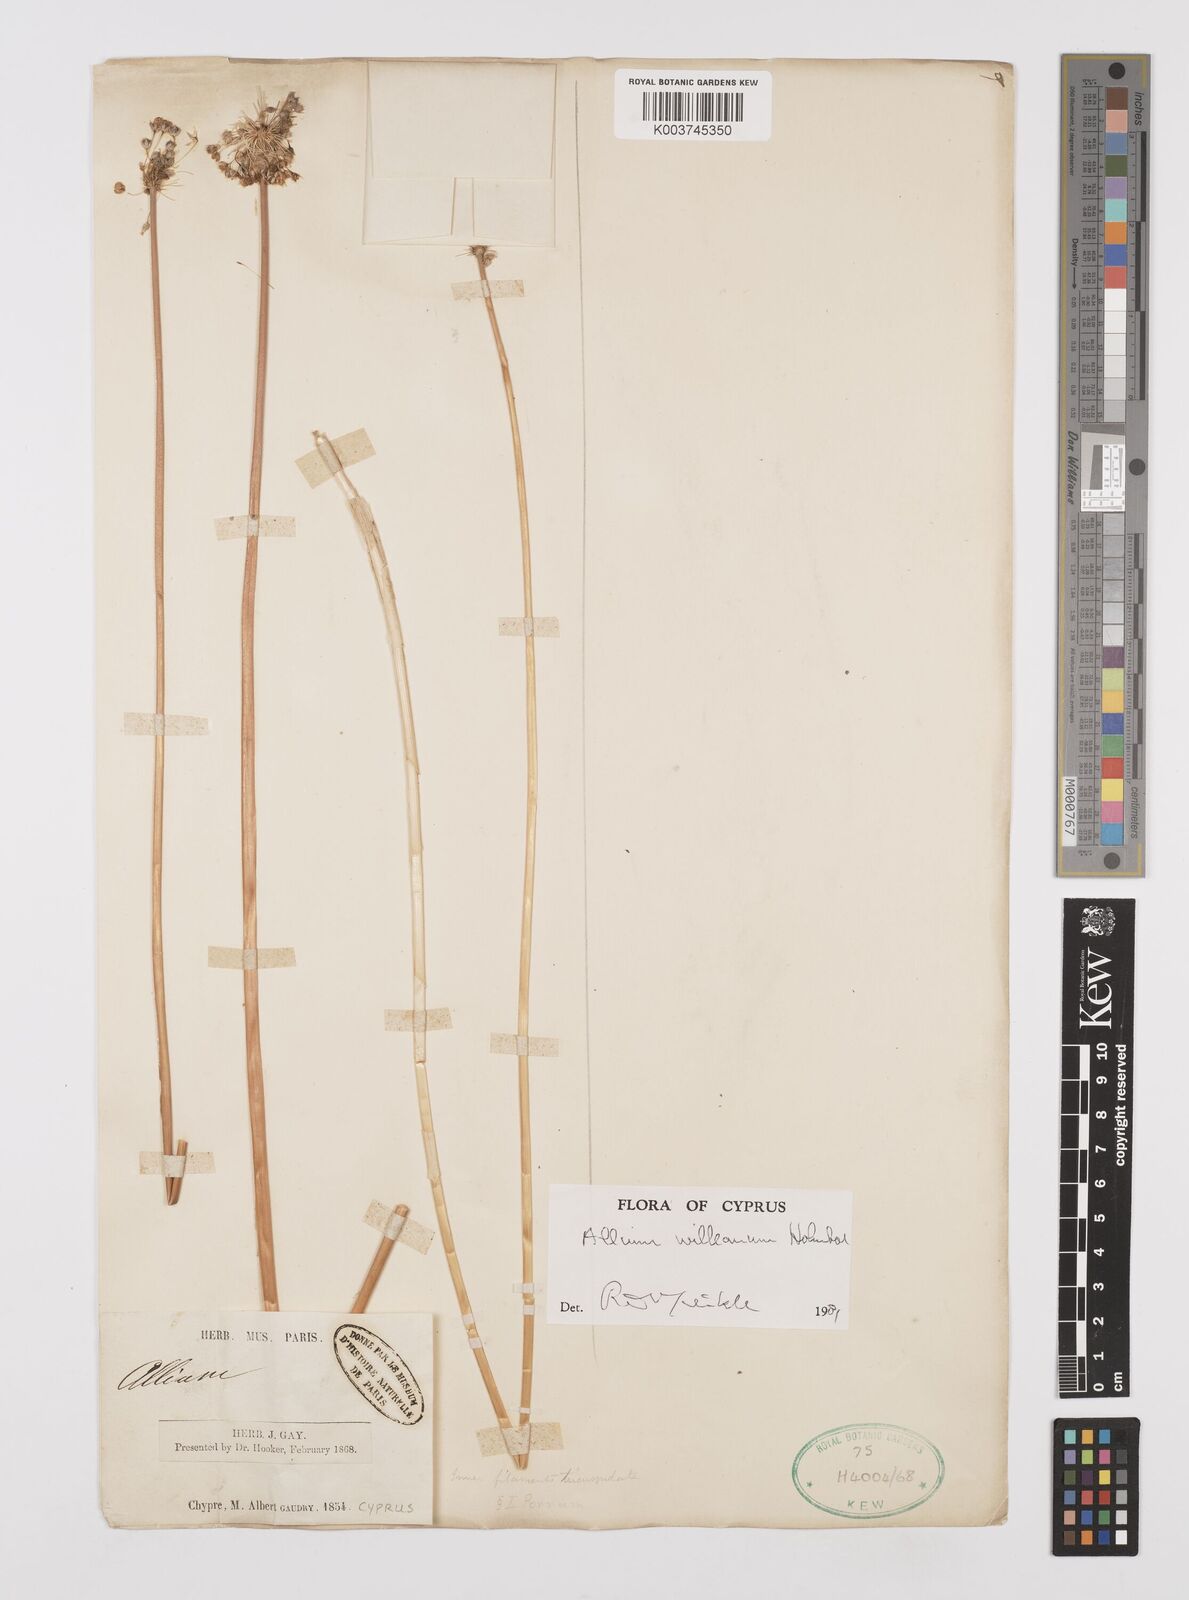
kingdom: Plantae
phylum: Tracheophyta
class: Liliopsida
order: Asparagales
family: Amaryllidaceae
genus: Allium
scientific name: Allium willeanum
